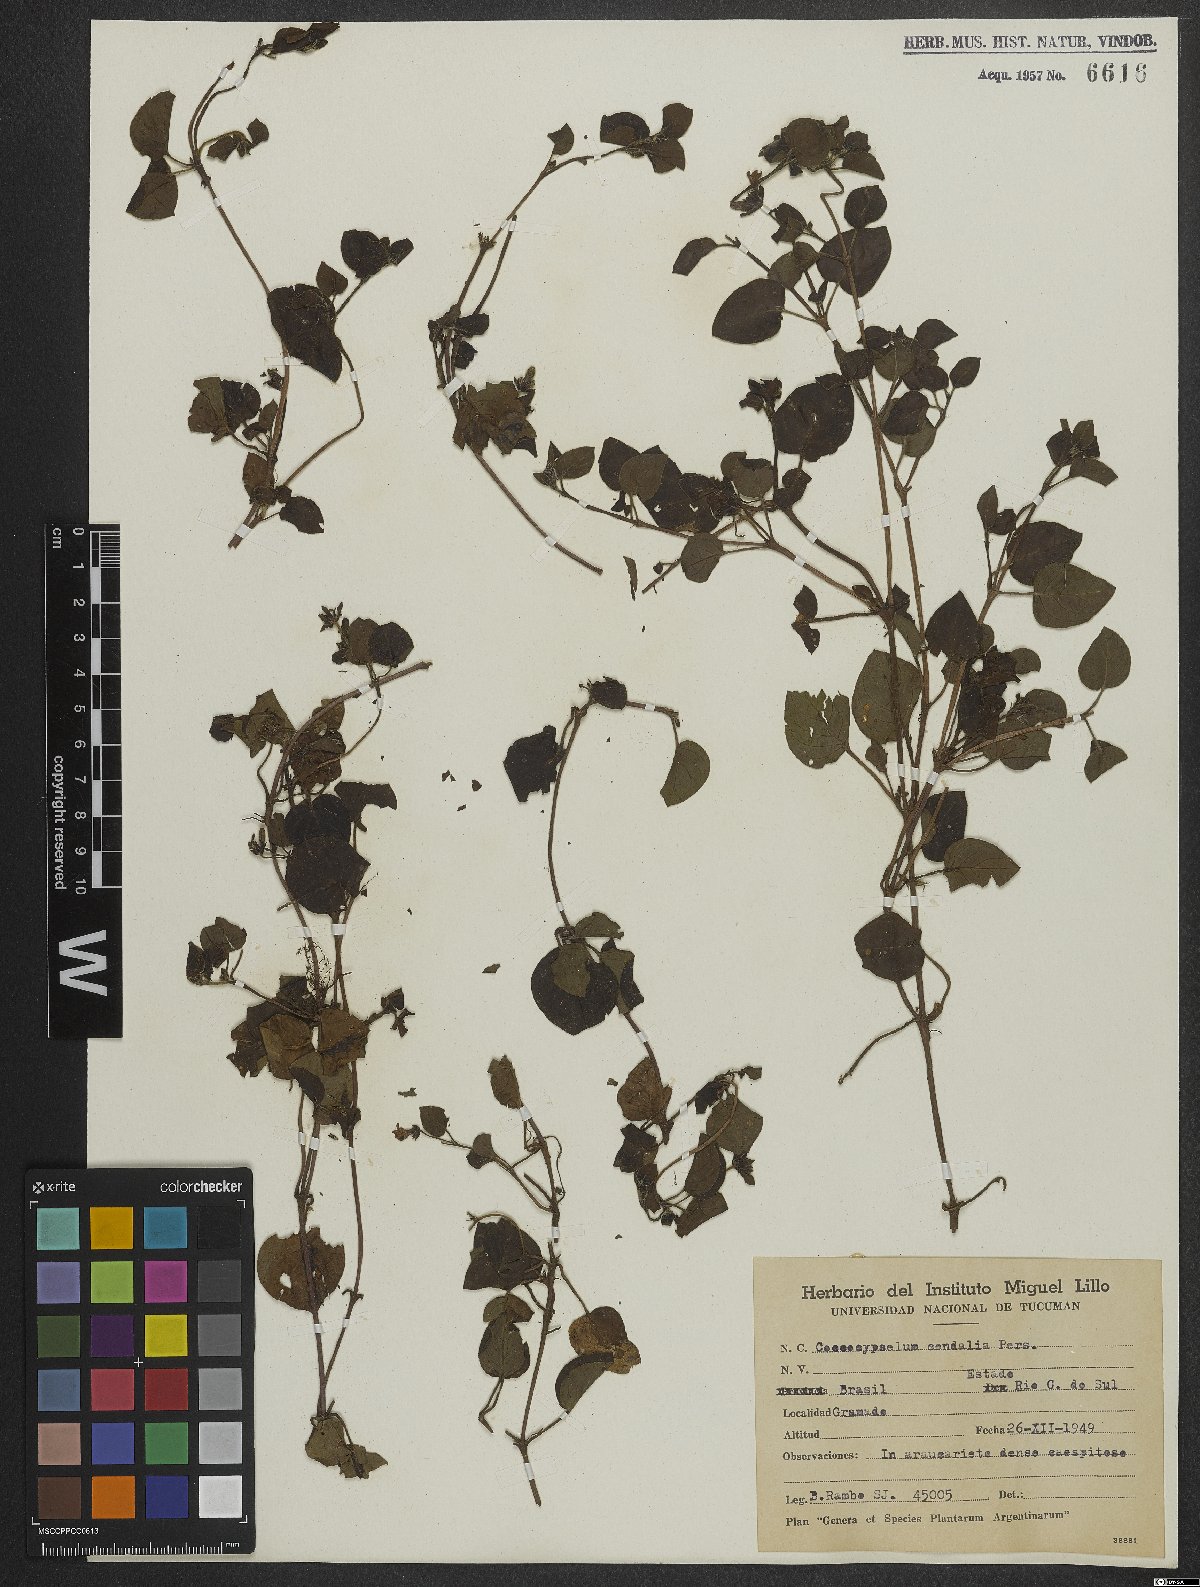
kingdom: Plantae
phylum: Tracheophyta
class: Magnoliopsida
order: Gentianales
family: Rubiaceae
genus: Coccocypselum
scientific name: Coccocypselum condalia
